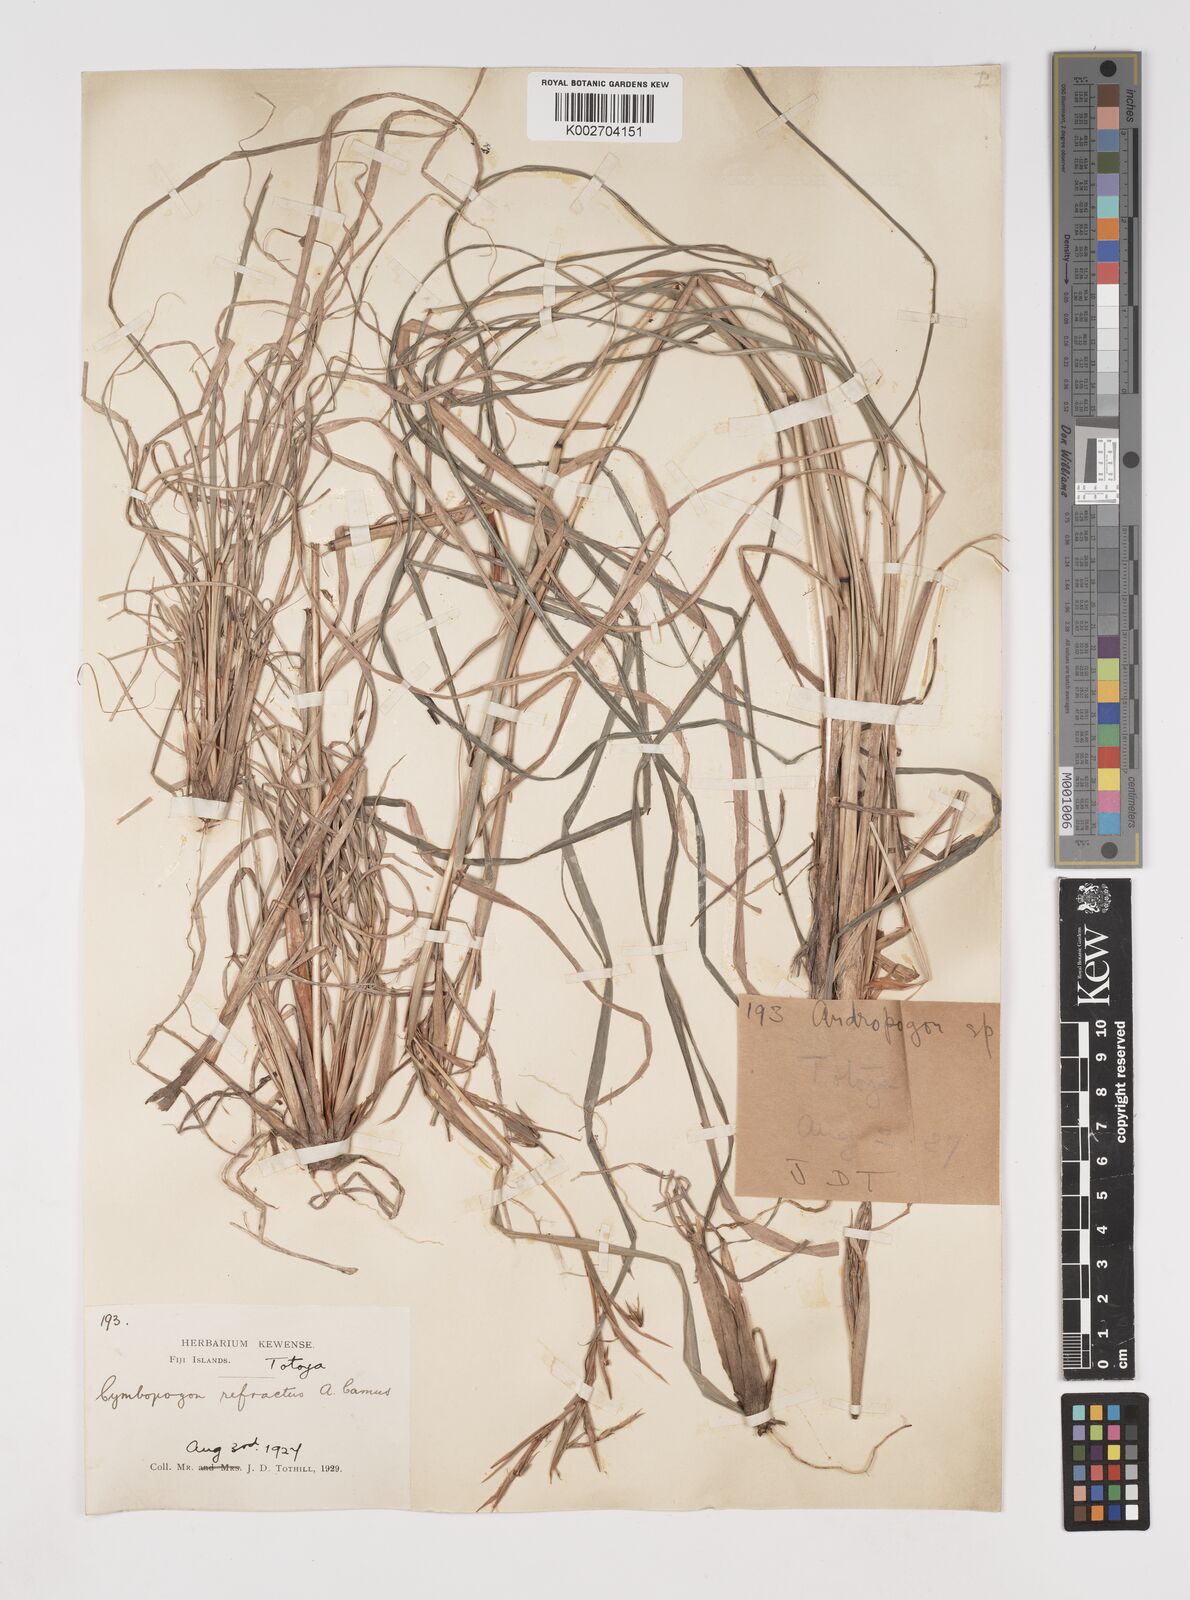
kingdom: Plantae
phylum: Tracheophyta
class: Liliopsida
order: Poales
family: Poaceae
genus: Cymbopogon
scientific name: Cymbopogon refractus
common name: Barbwire grass
